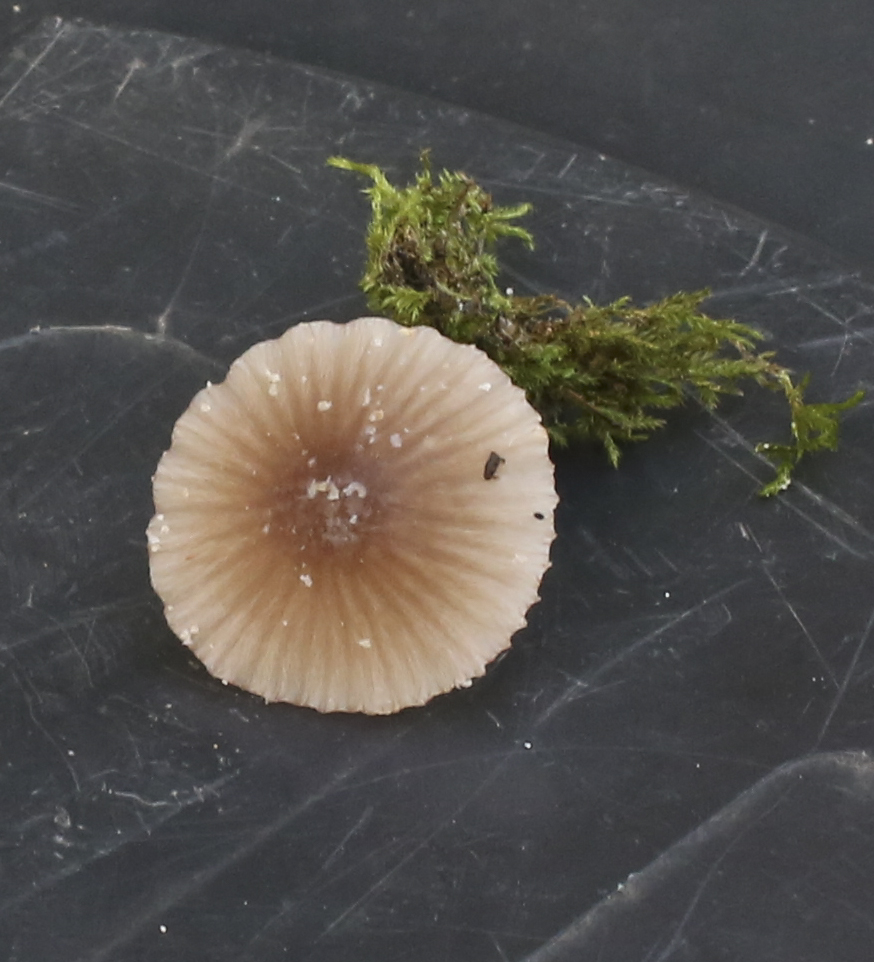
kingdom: Fungi
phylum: Basidiomycota
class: Agaricomycetes
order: Agaricales
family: Mycenaceae
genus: Mycena
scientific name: Mycena rubromarginata
